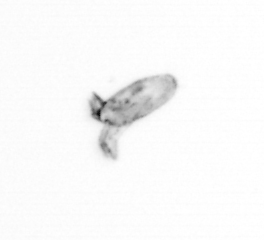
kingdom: Animalia
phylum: Arthropoda
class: Copepoda
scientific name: Copepoda
